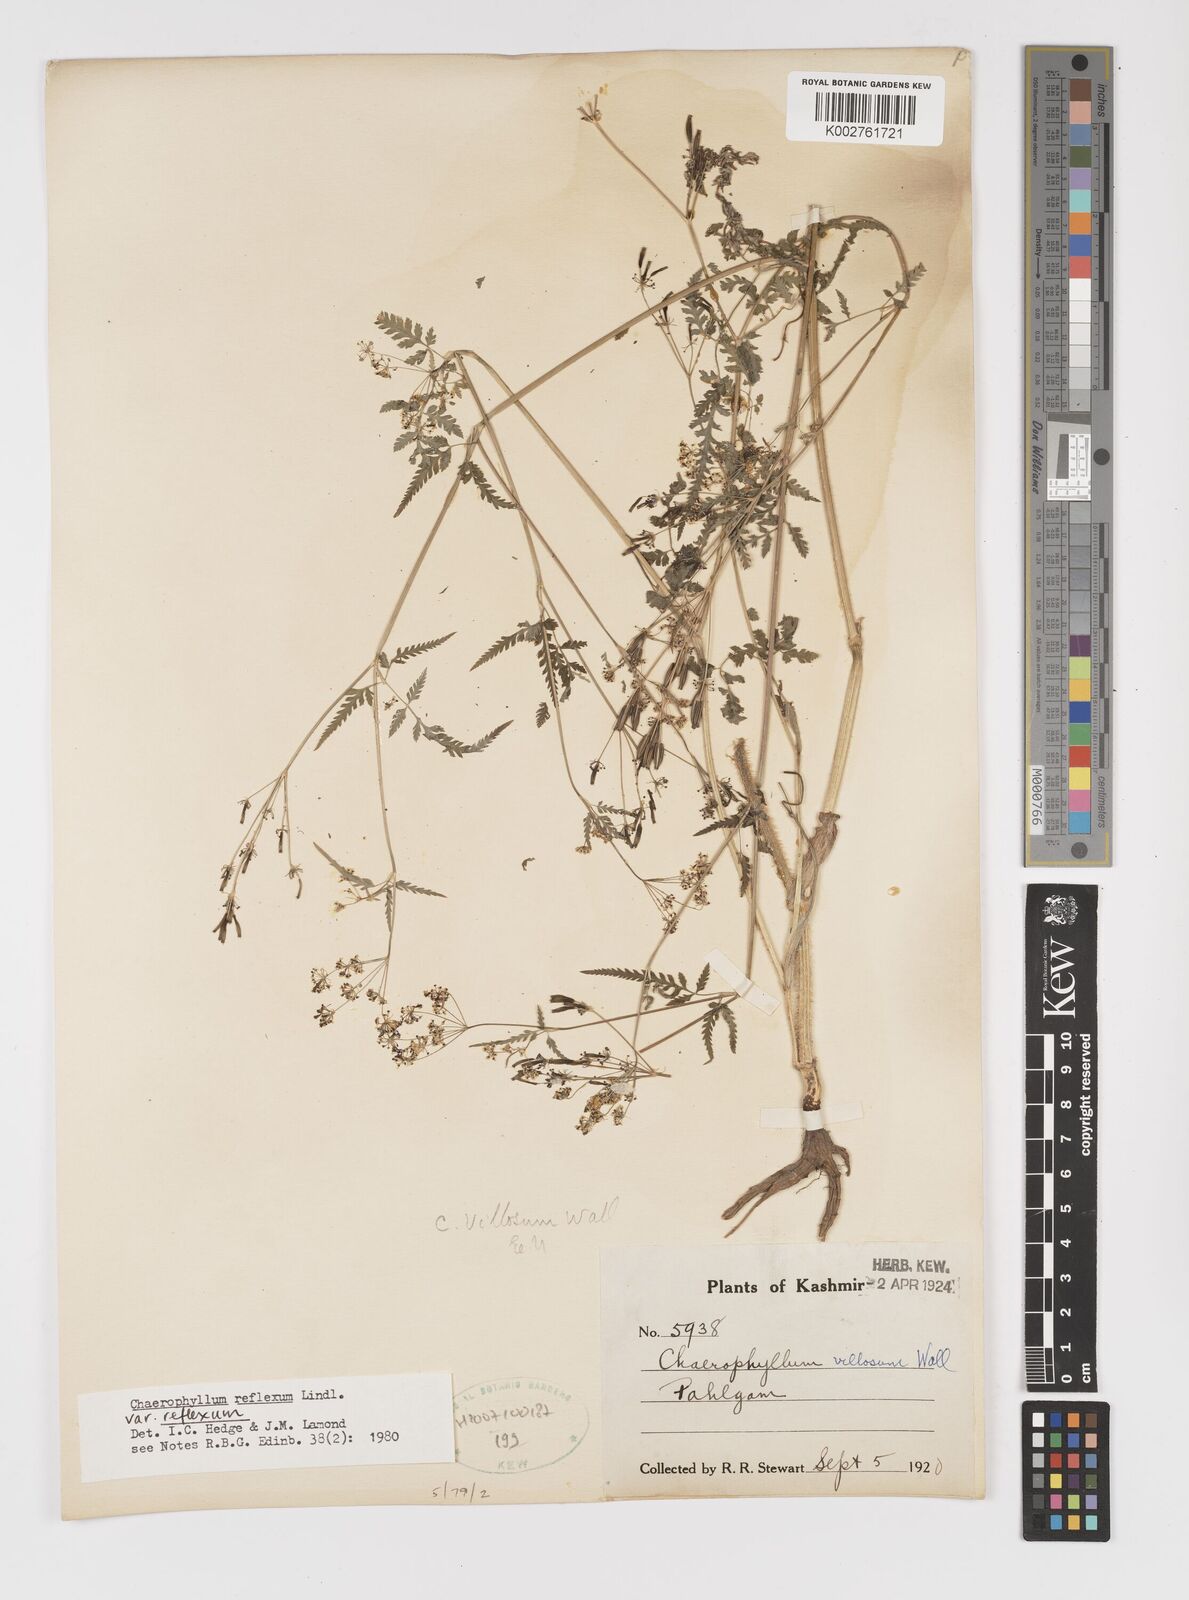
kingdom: Plantae
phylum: Tracheophyta
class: Magnoliopsida
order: Apiales
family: Apiaceae
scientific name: Apiaceae
